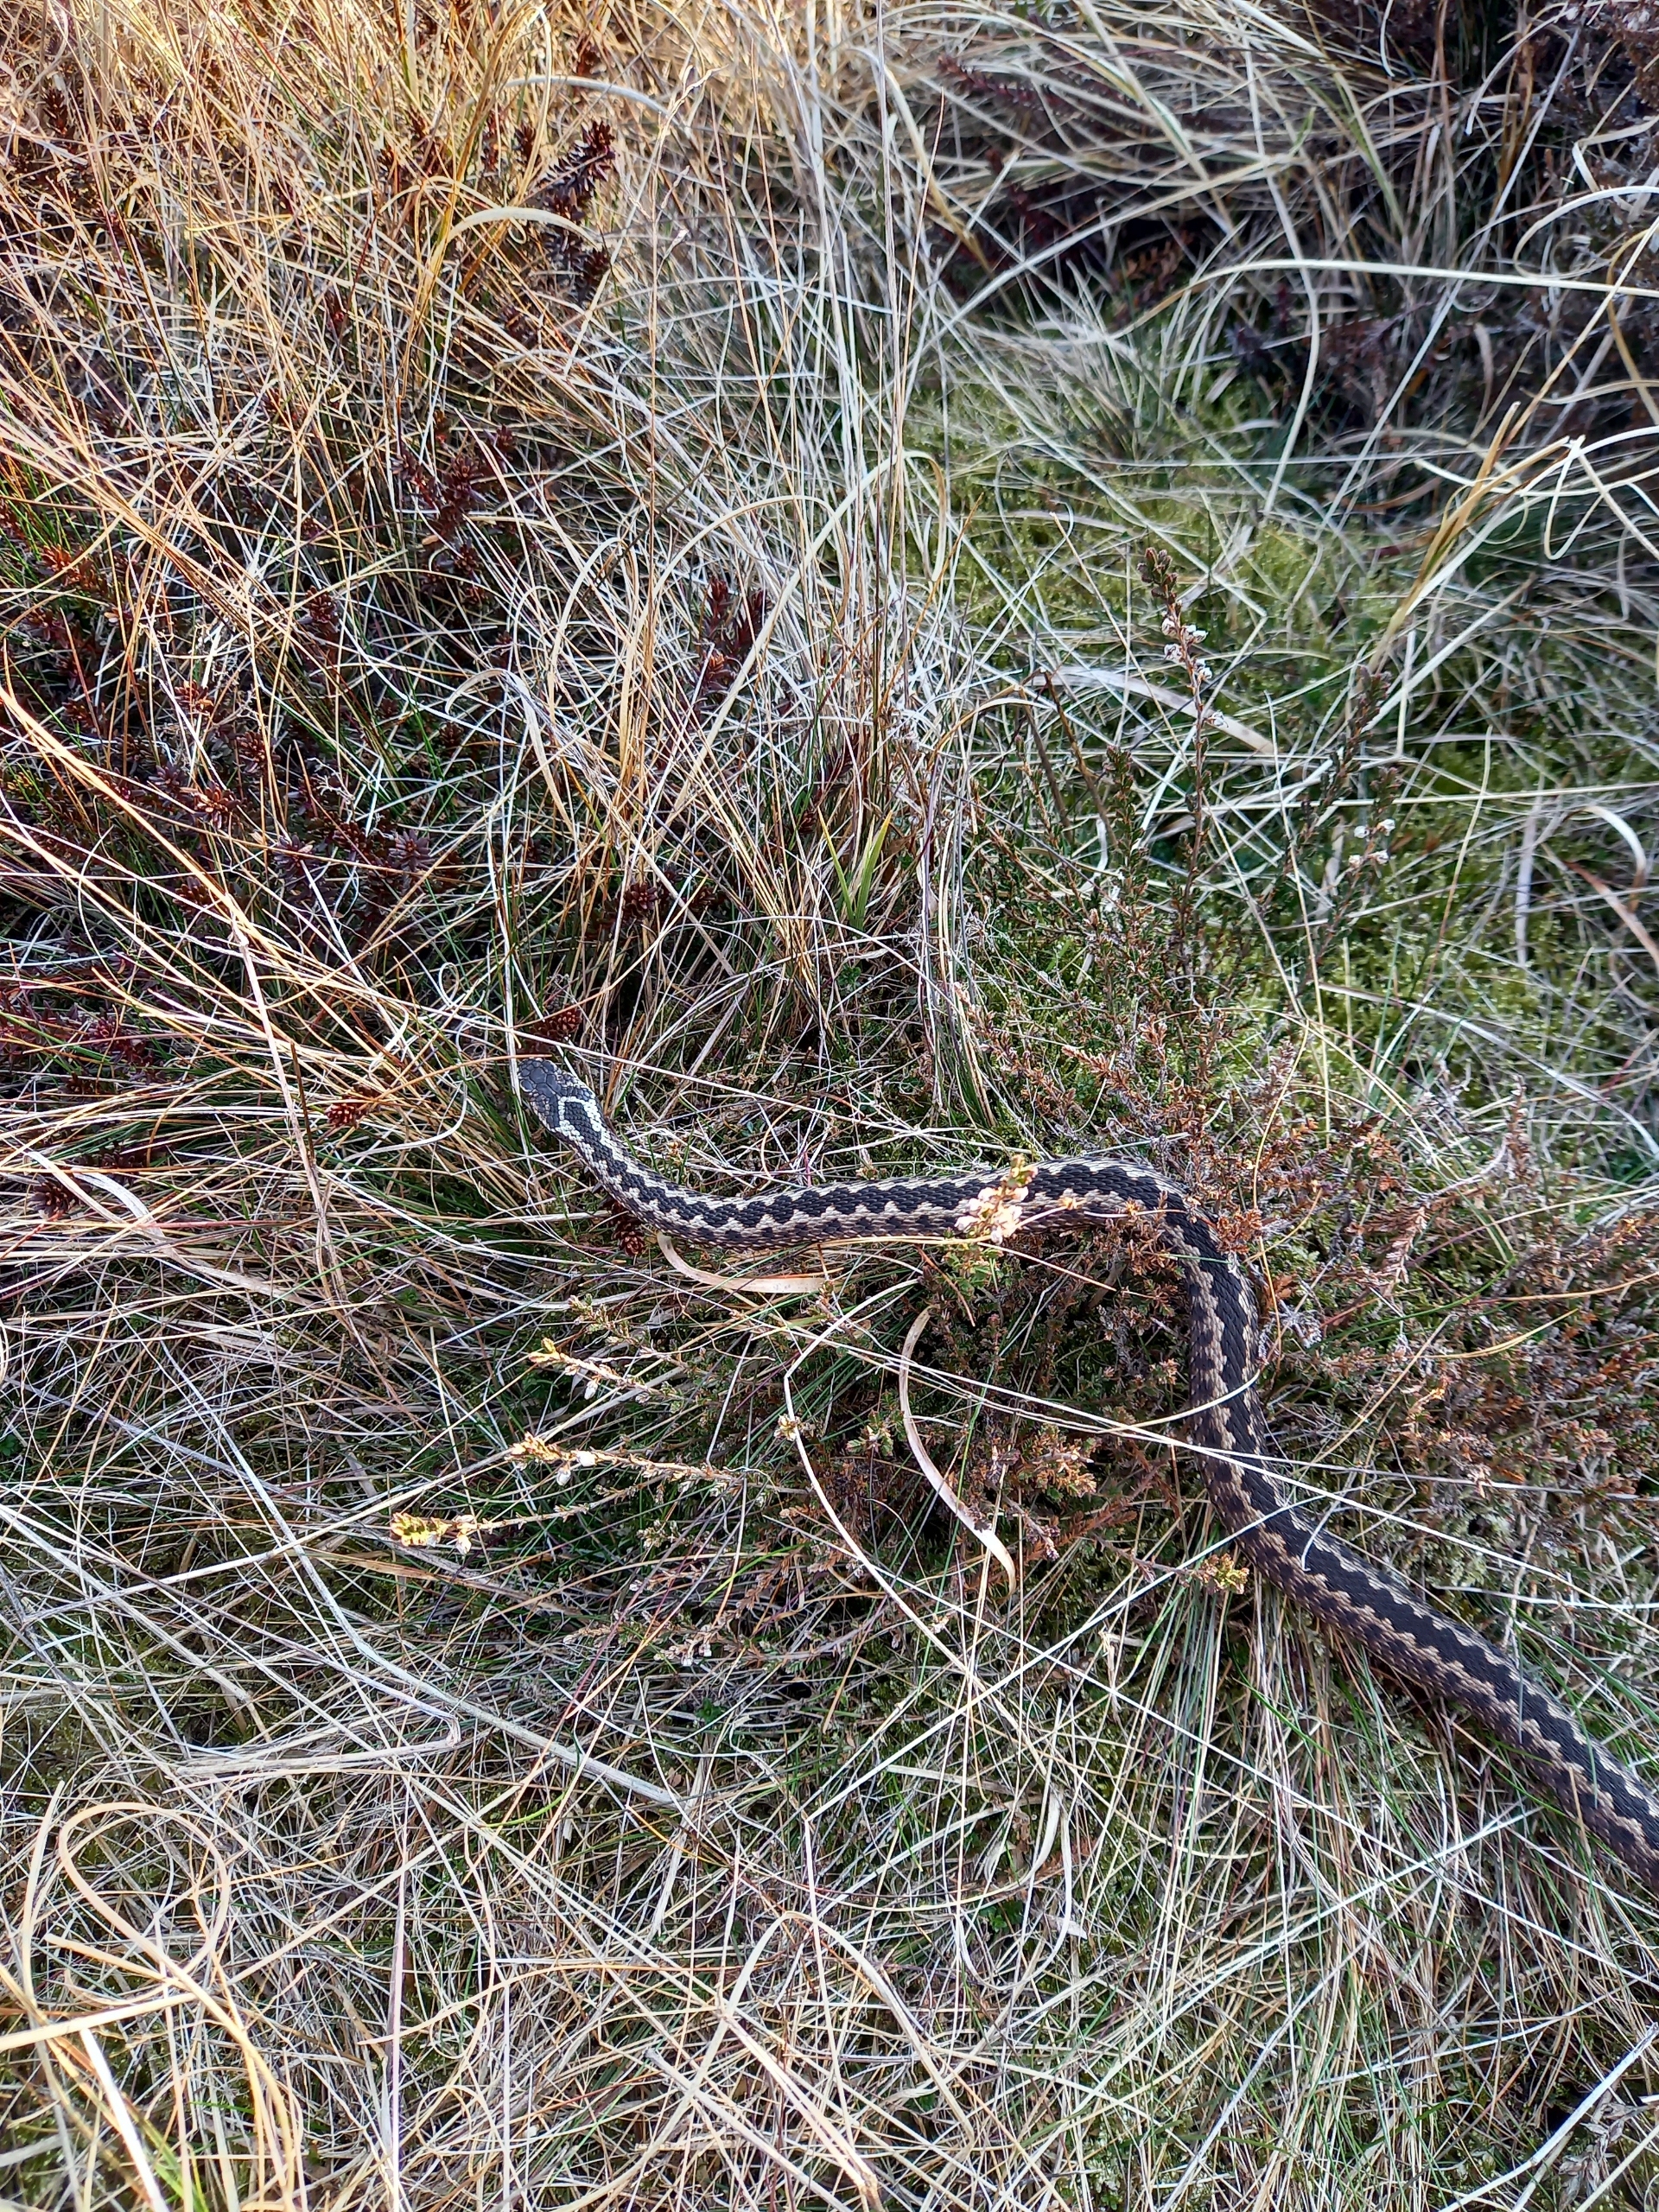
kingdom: Animalia
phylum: Chordata
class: Squamata
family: Viperidae
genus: Vipera
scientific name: Vipera berus
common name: Hugorm
